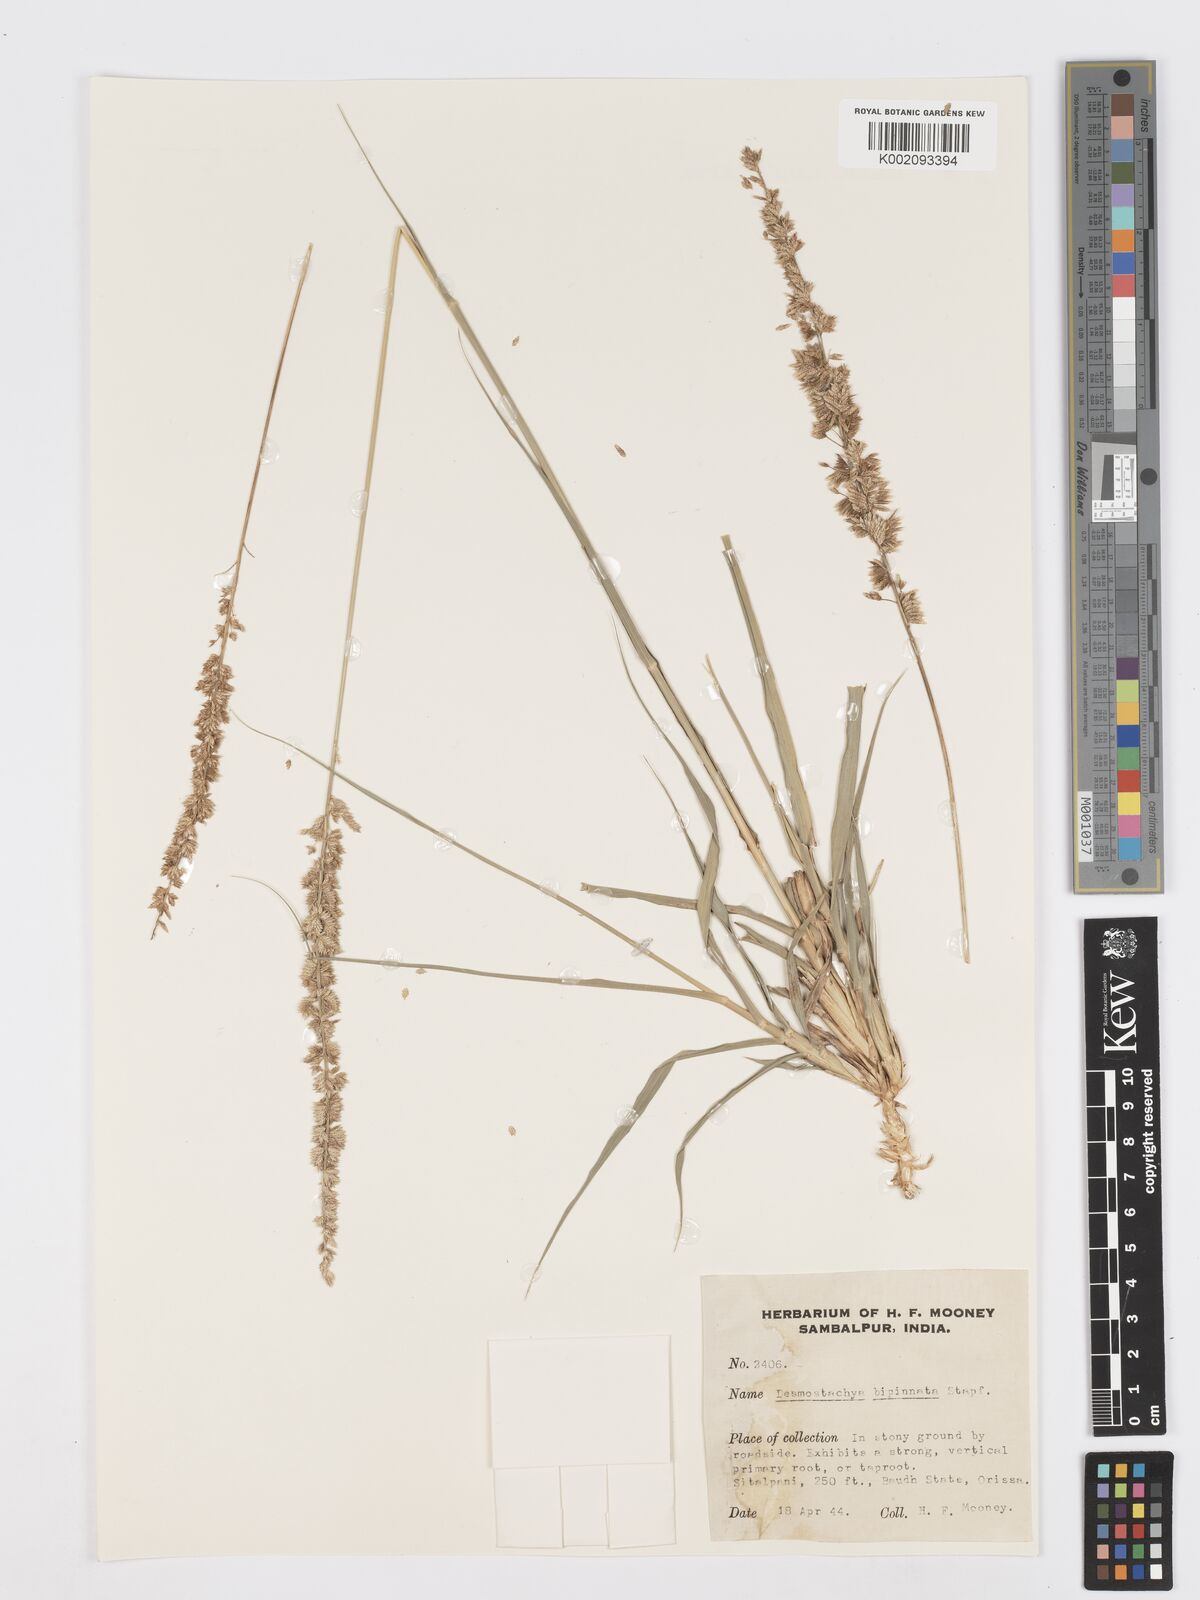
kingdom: Plantae
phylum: Tracheophyta
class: Liliopsida
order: Poales
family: Poaceae
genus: Desmostachya
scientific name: Desmostachya bipinnata
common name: Crowfoot grass
